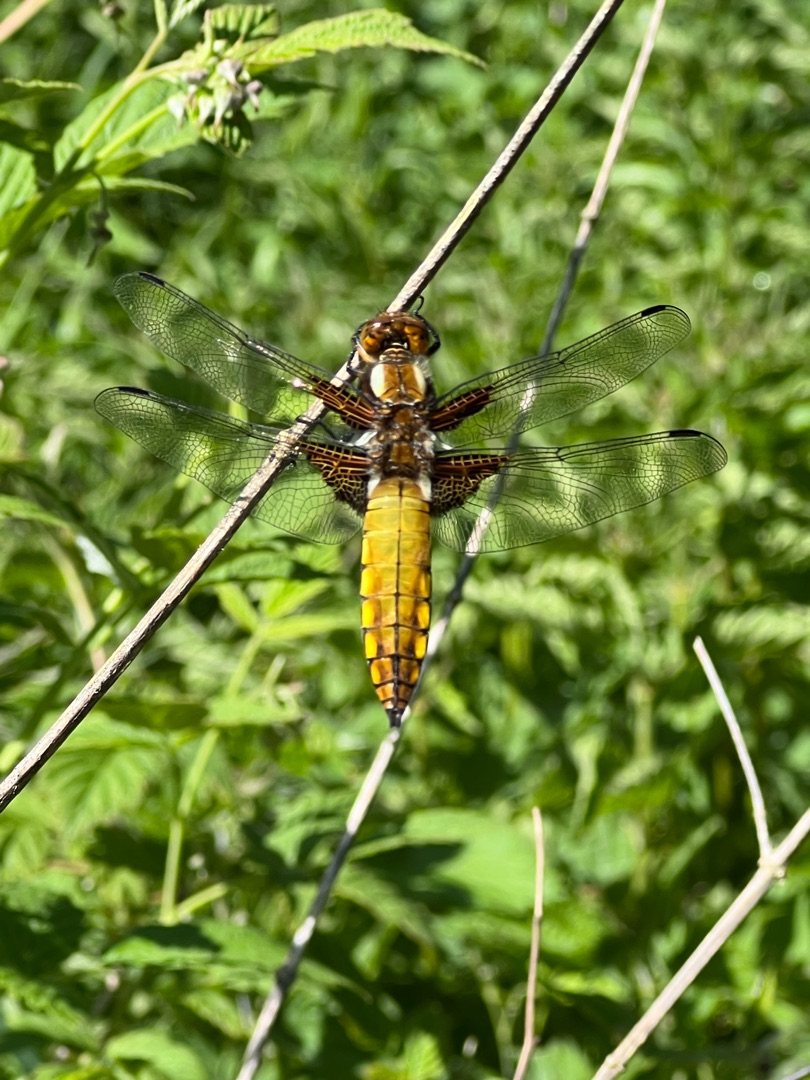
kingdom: Animalia
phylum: Arthropoda
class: Insecta
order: Odonata
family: Libellulidae
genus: Libellula
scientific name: Libellula depressa
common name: Blå libel
